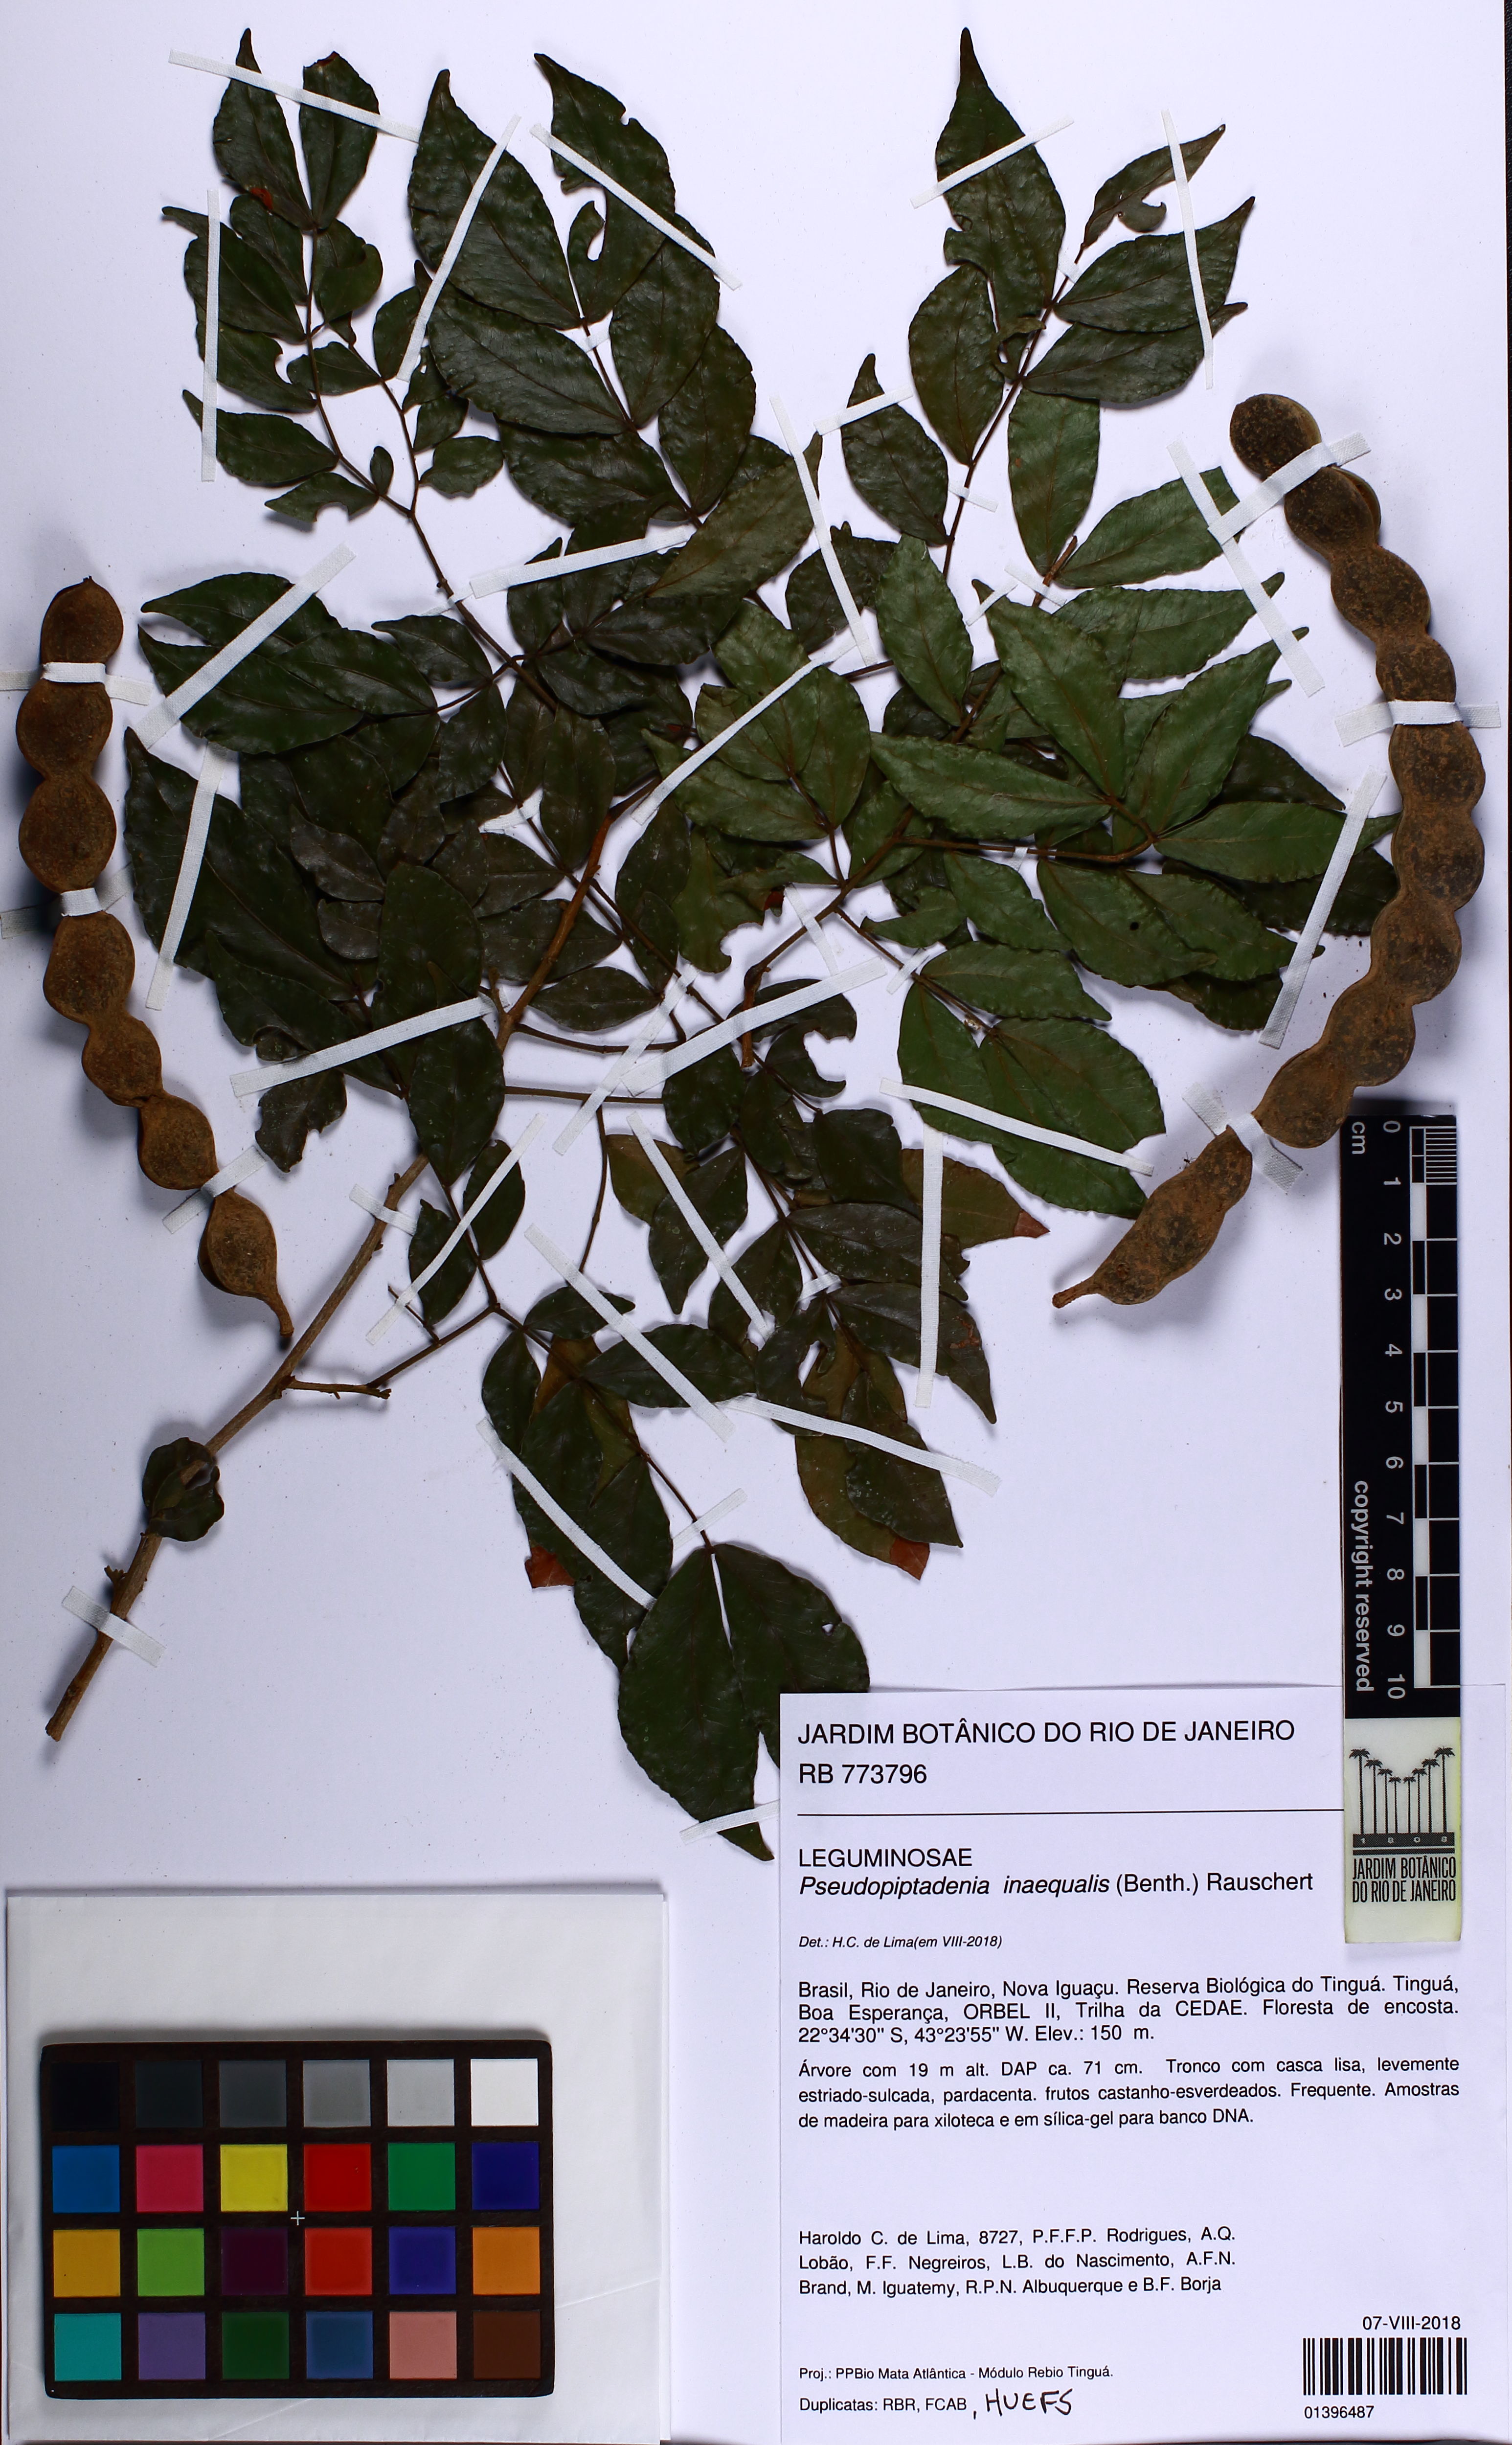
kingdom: Plantae
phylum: Tracheophyta
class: Magnoliopsida
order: Fabales
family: Fabaceae
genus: Pseudopiptadenia
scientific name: Pseudopiptadenia inaequalis
